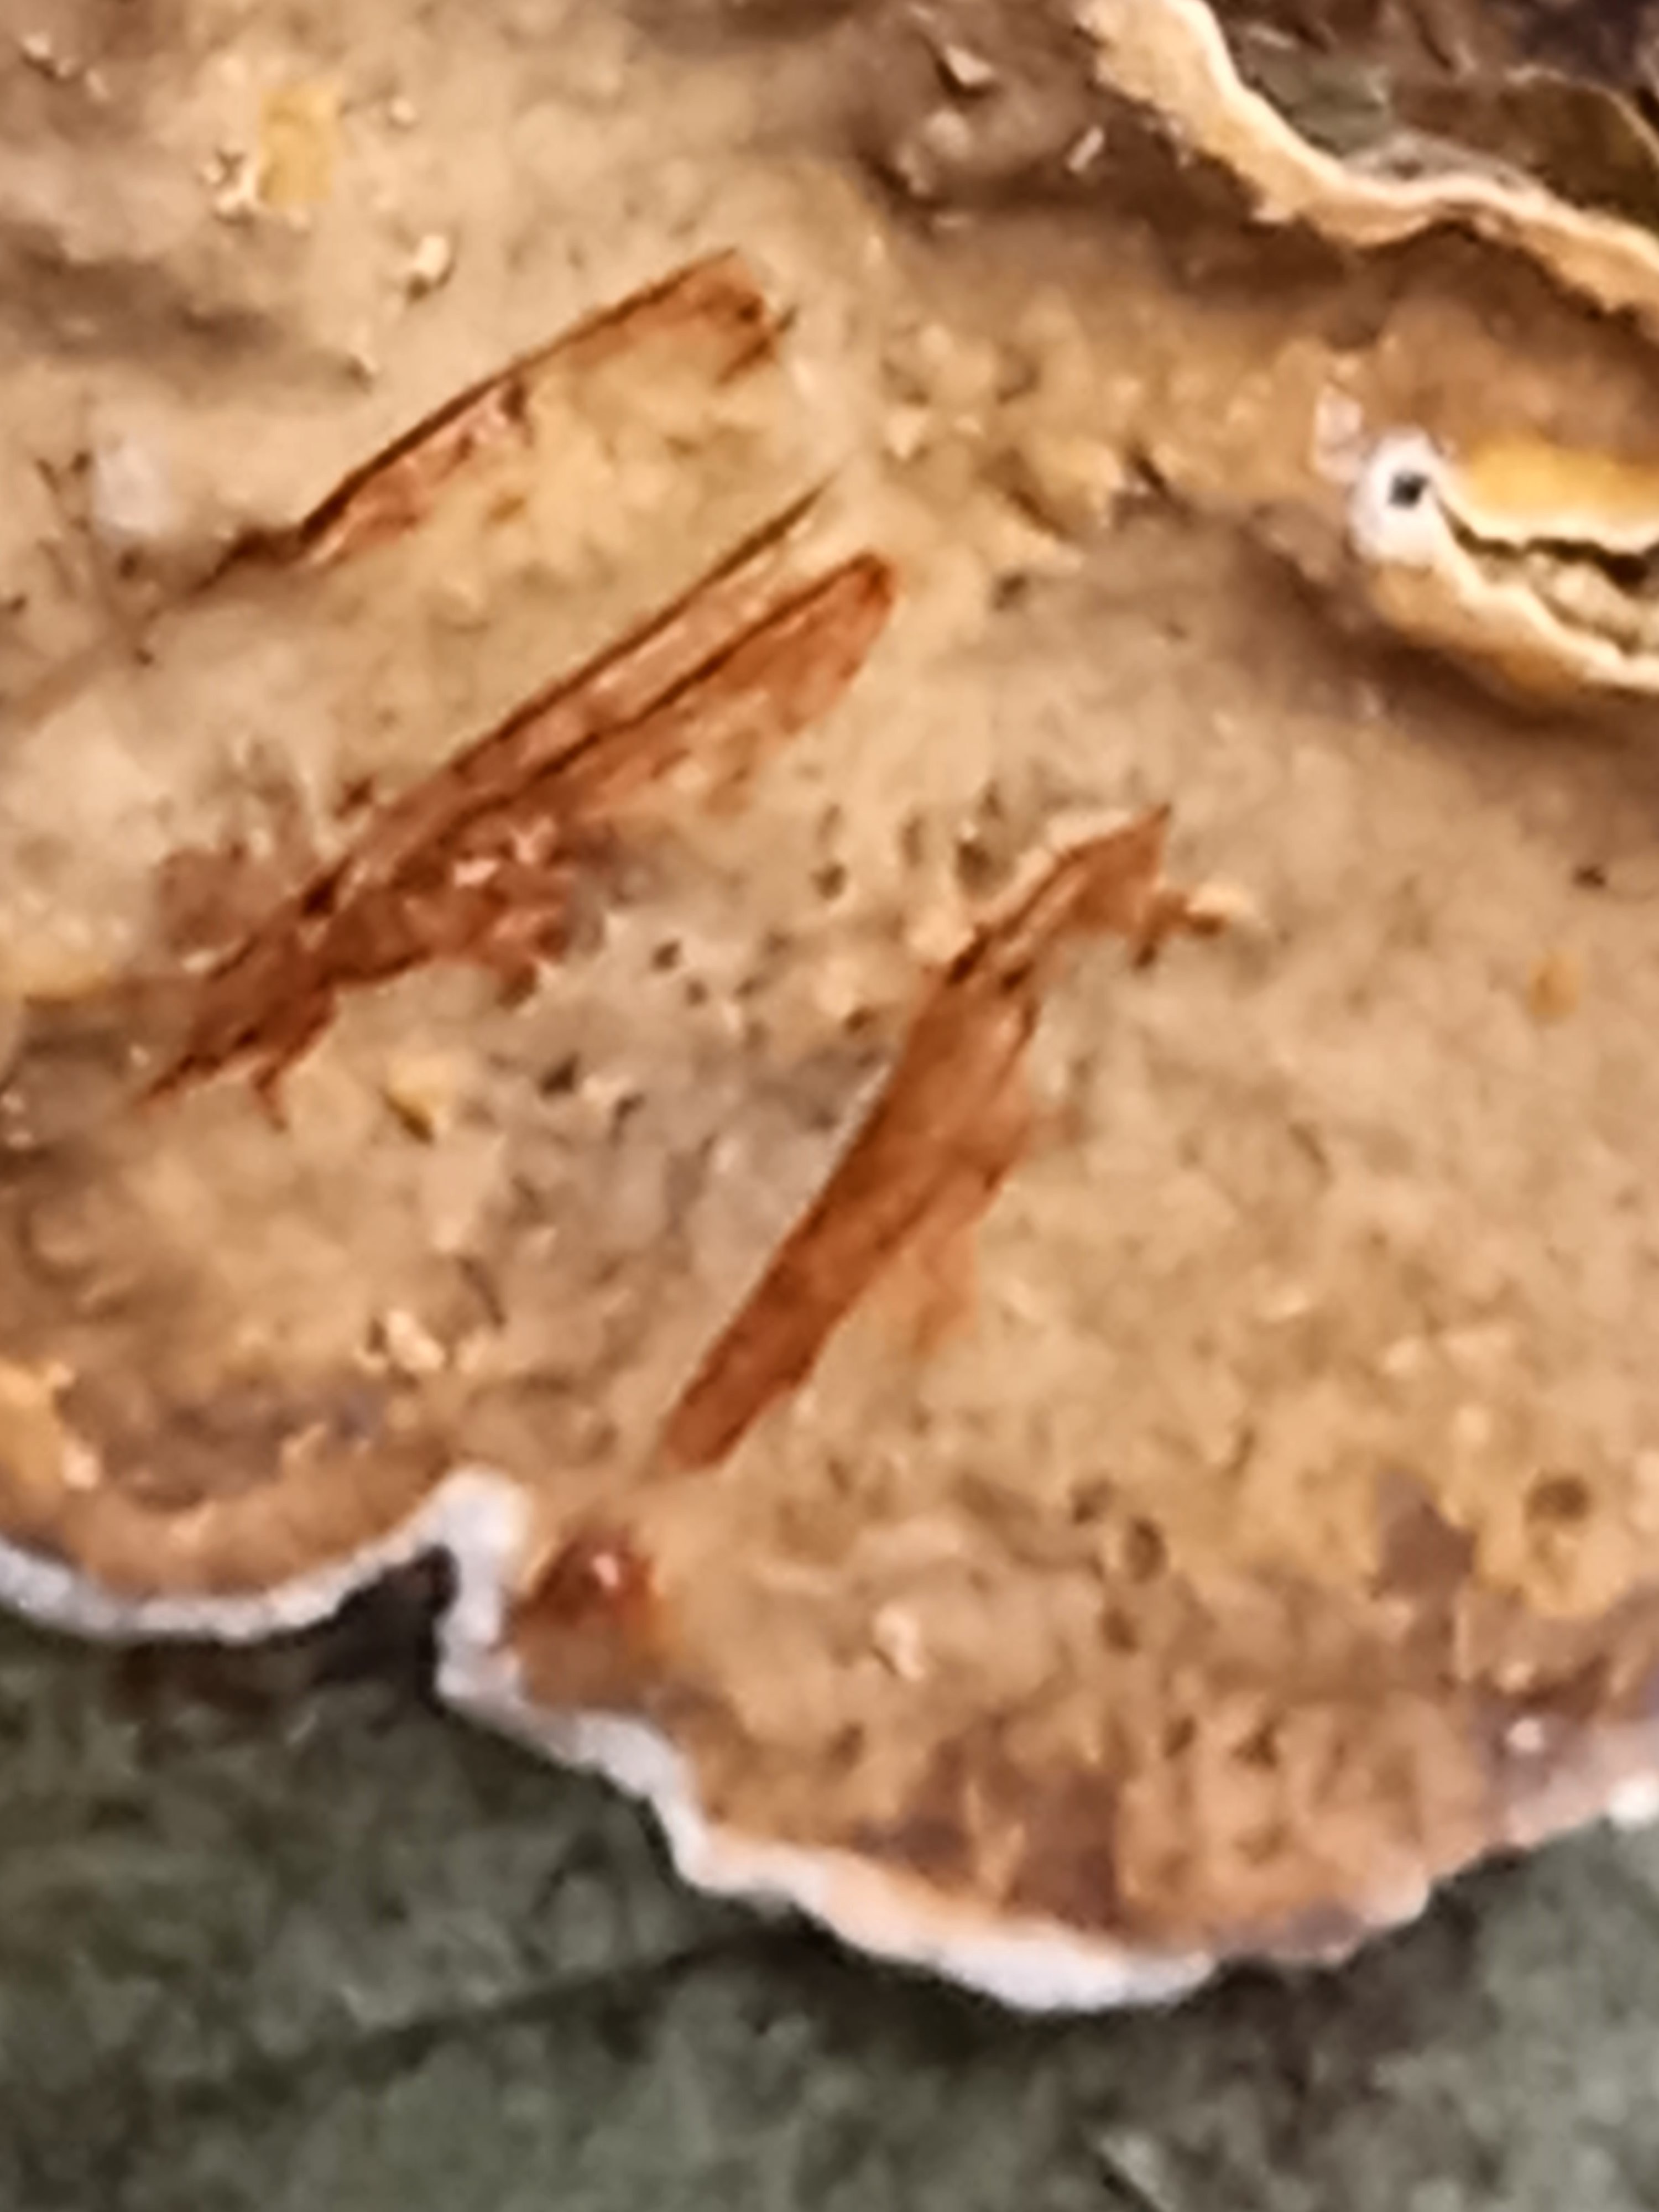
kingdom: Fungi
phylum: Basidiomycota
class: Agaricomycetes
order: Russulales
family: Stereaceae
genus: Stereum
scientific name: Stereum rugosum
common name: rynket lædersvamp
